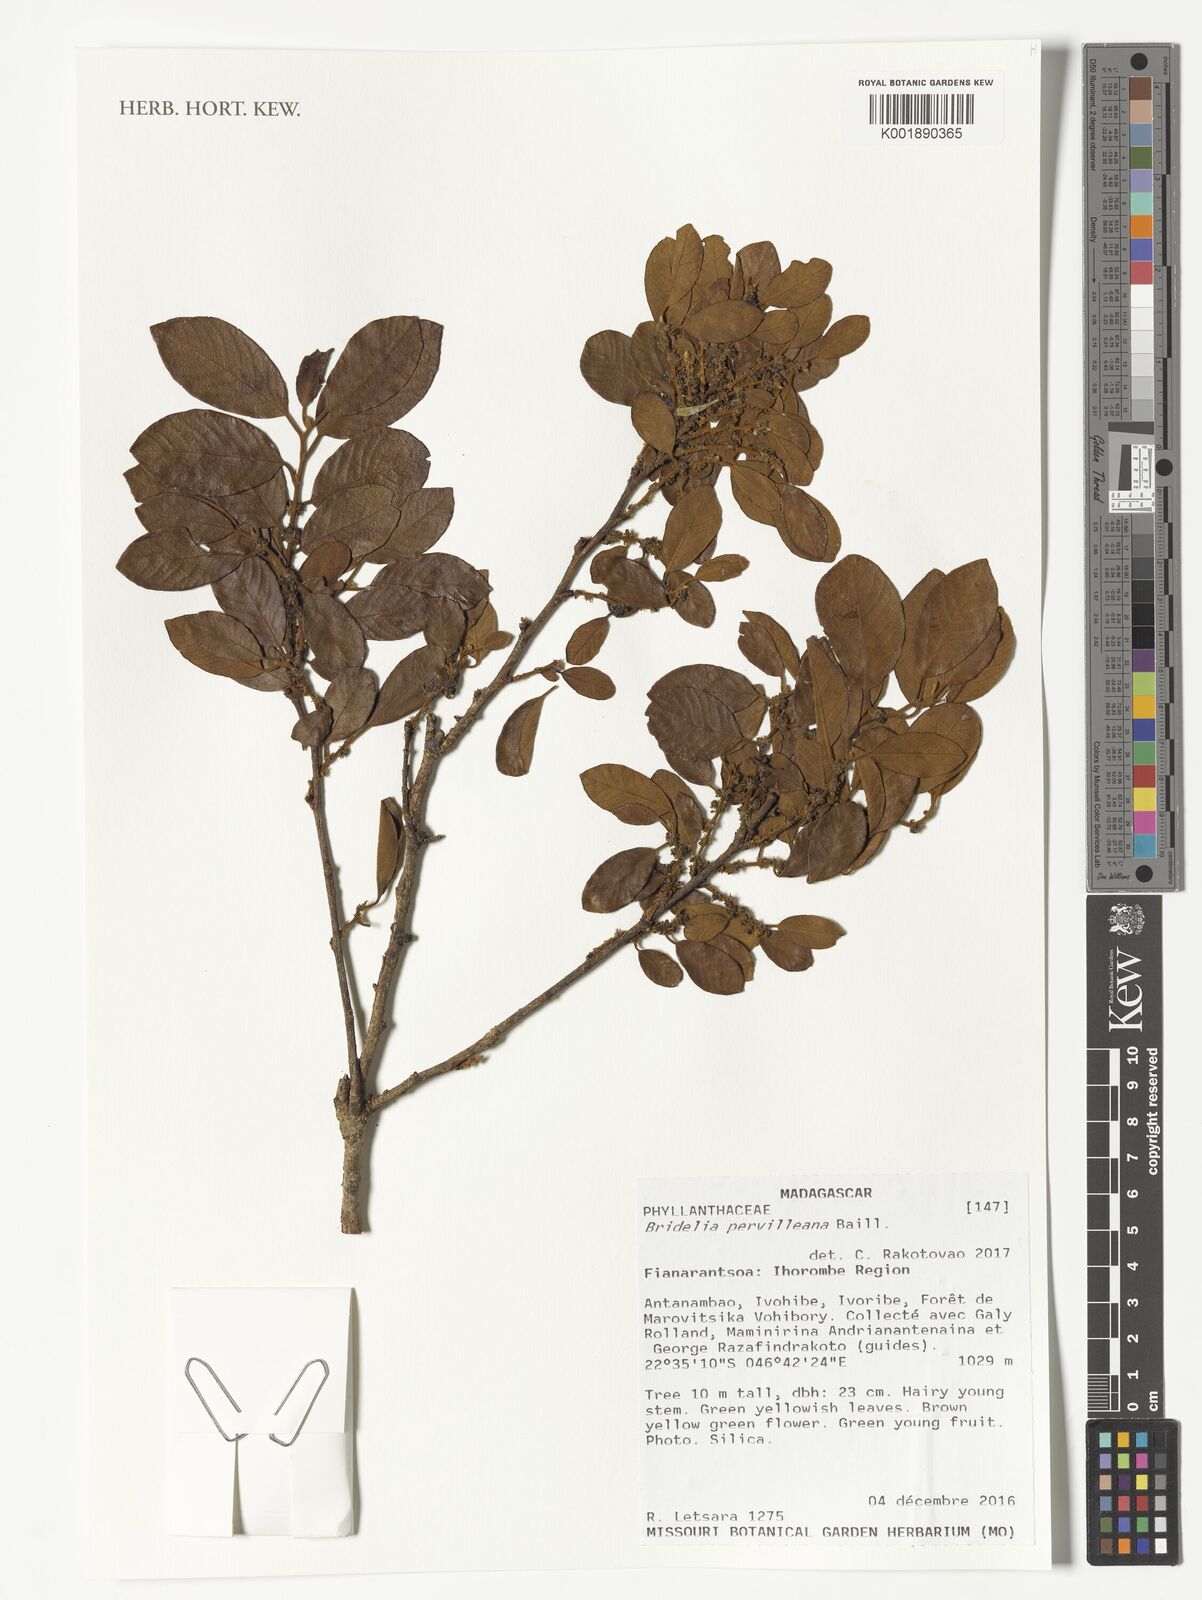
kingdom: Plantae
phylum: Tracheophyta
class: Magnoliopsida
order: Malpighiales
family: Phyllanthaceae
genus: Bridelia
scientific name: Bridelia pervilleana
